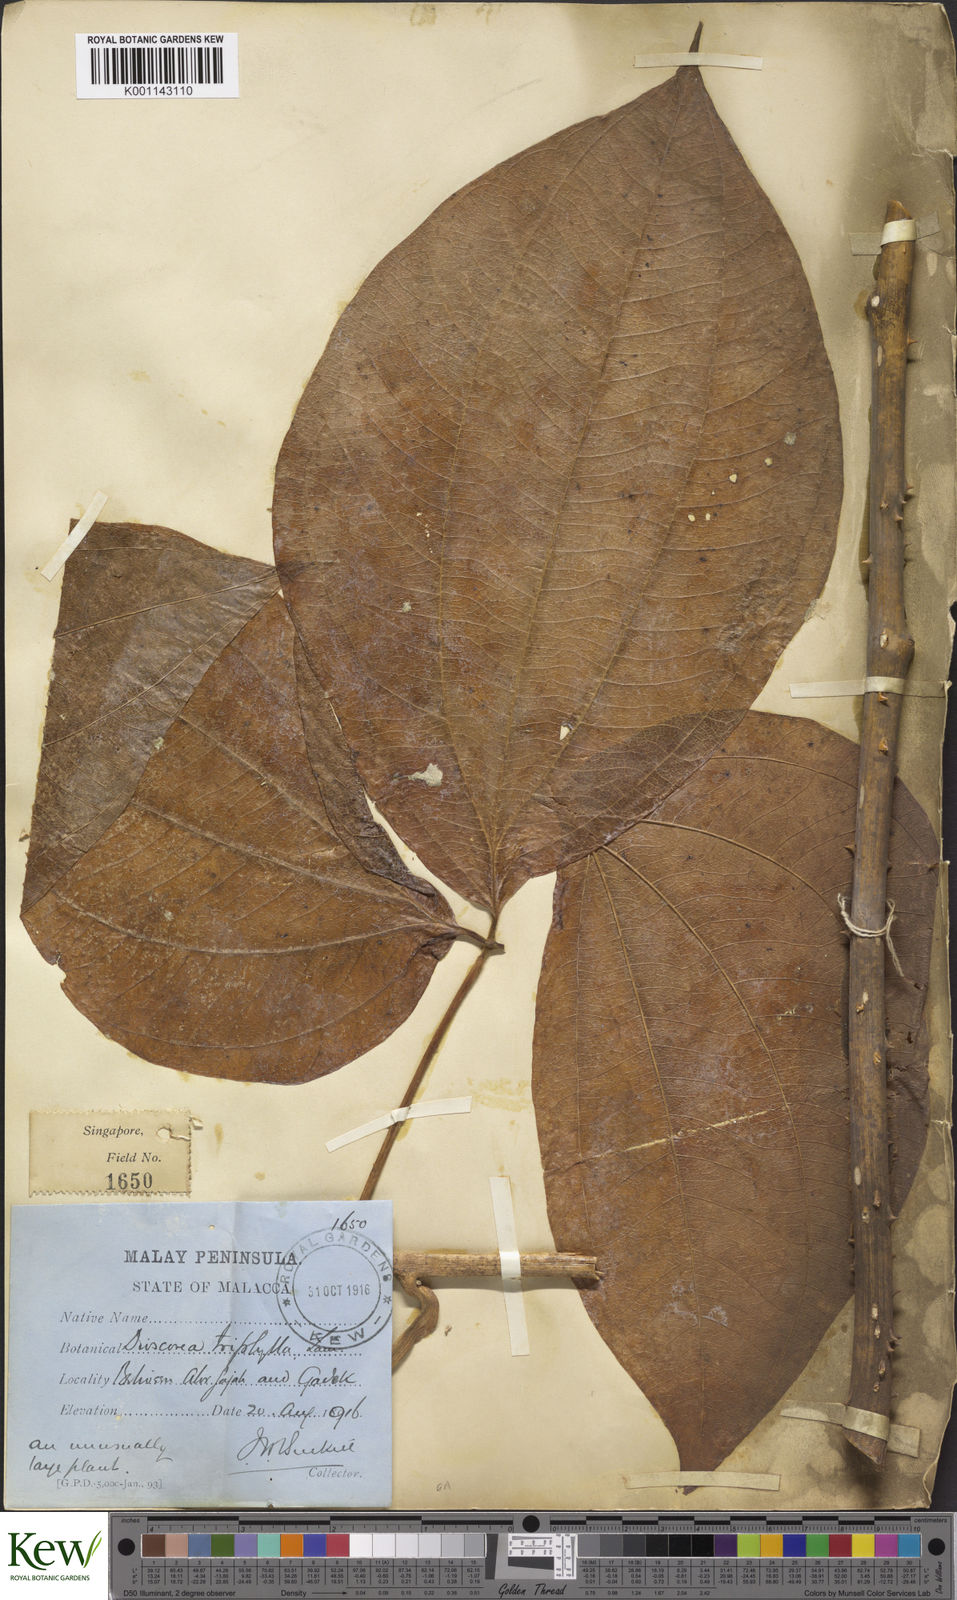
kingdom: Plantae
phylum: Tracheophyta
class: Liliopsida
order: Dioscoreales
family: Dioscoreaceae
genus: Dioscorea
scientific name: Dioscorea pentaphylla
